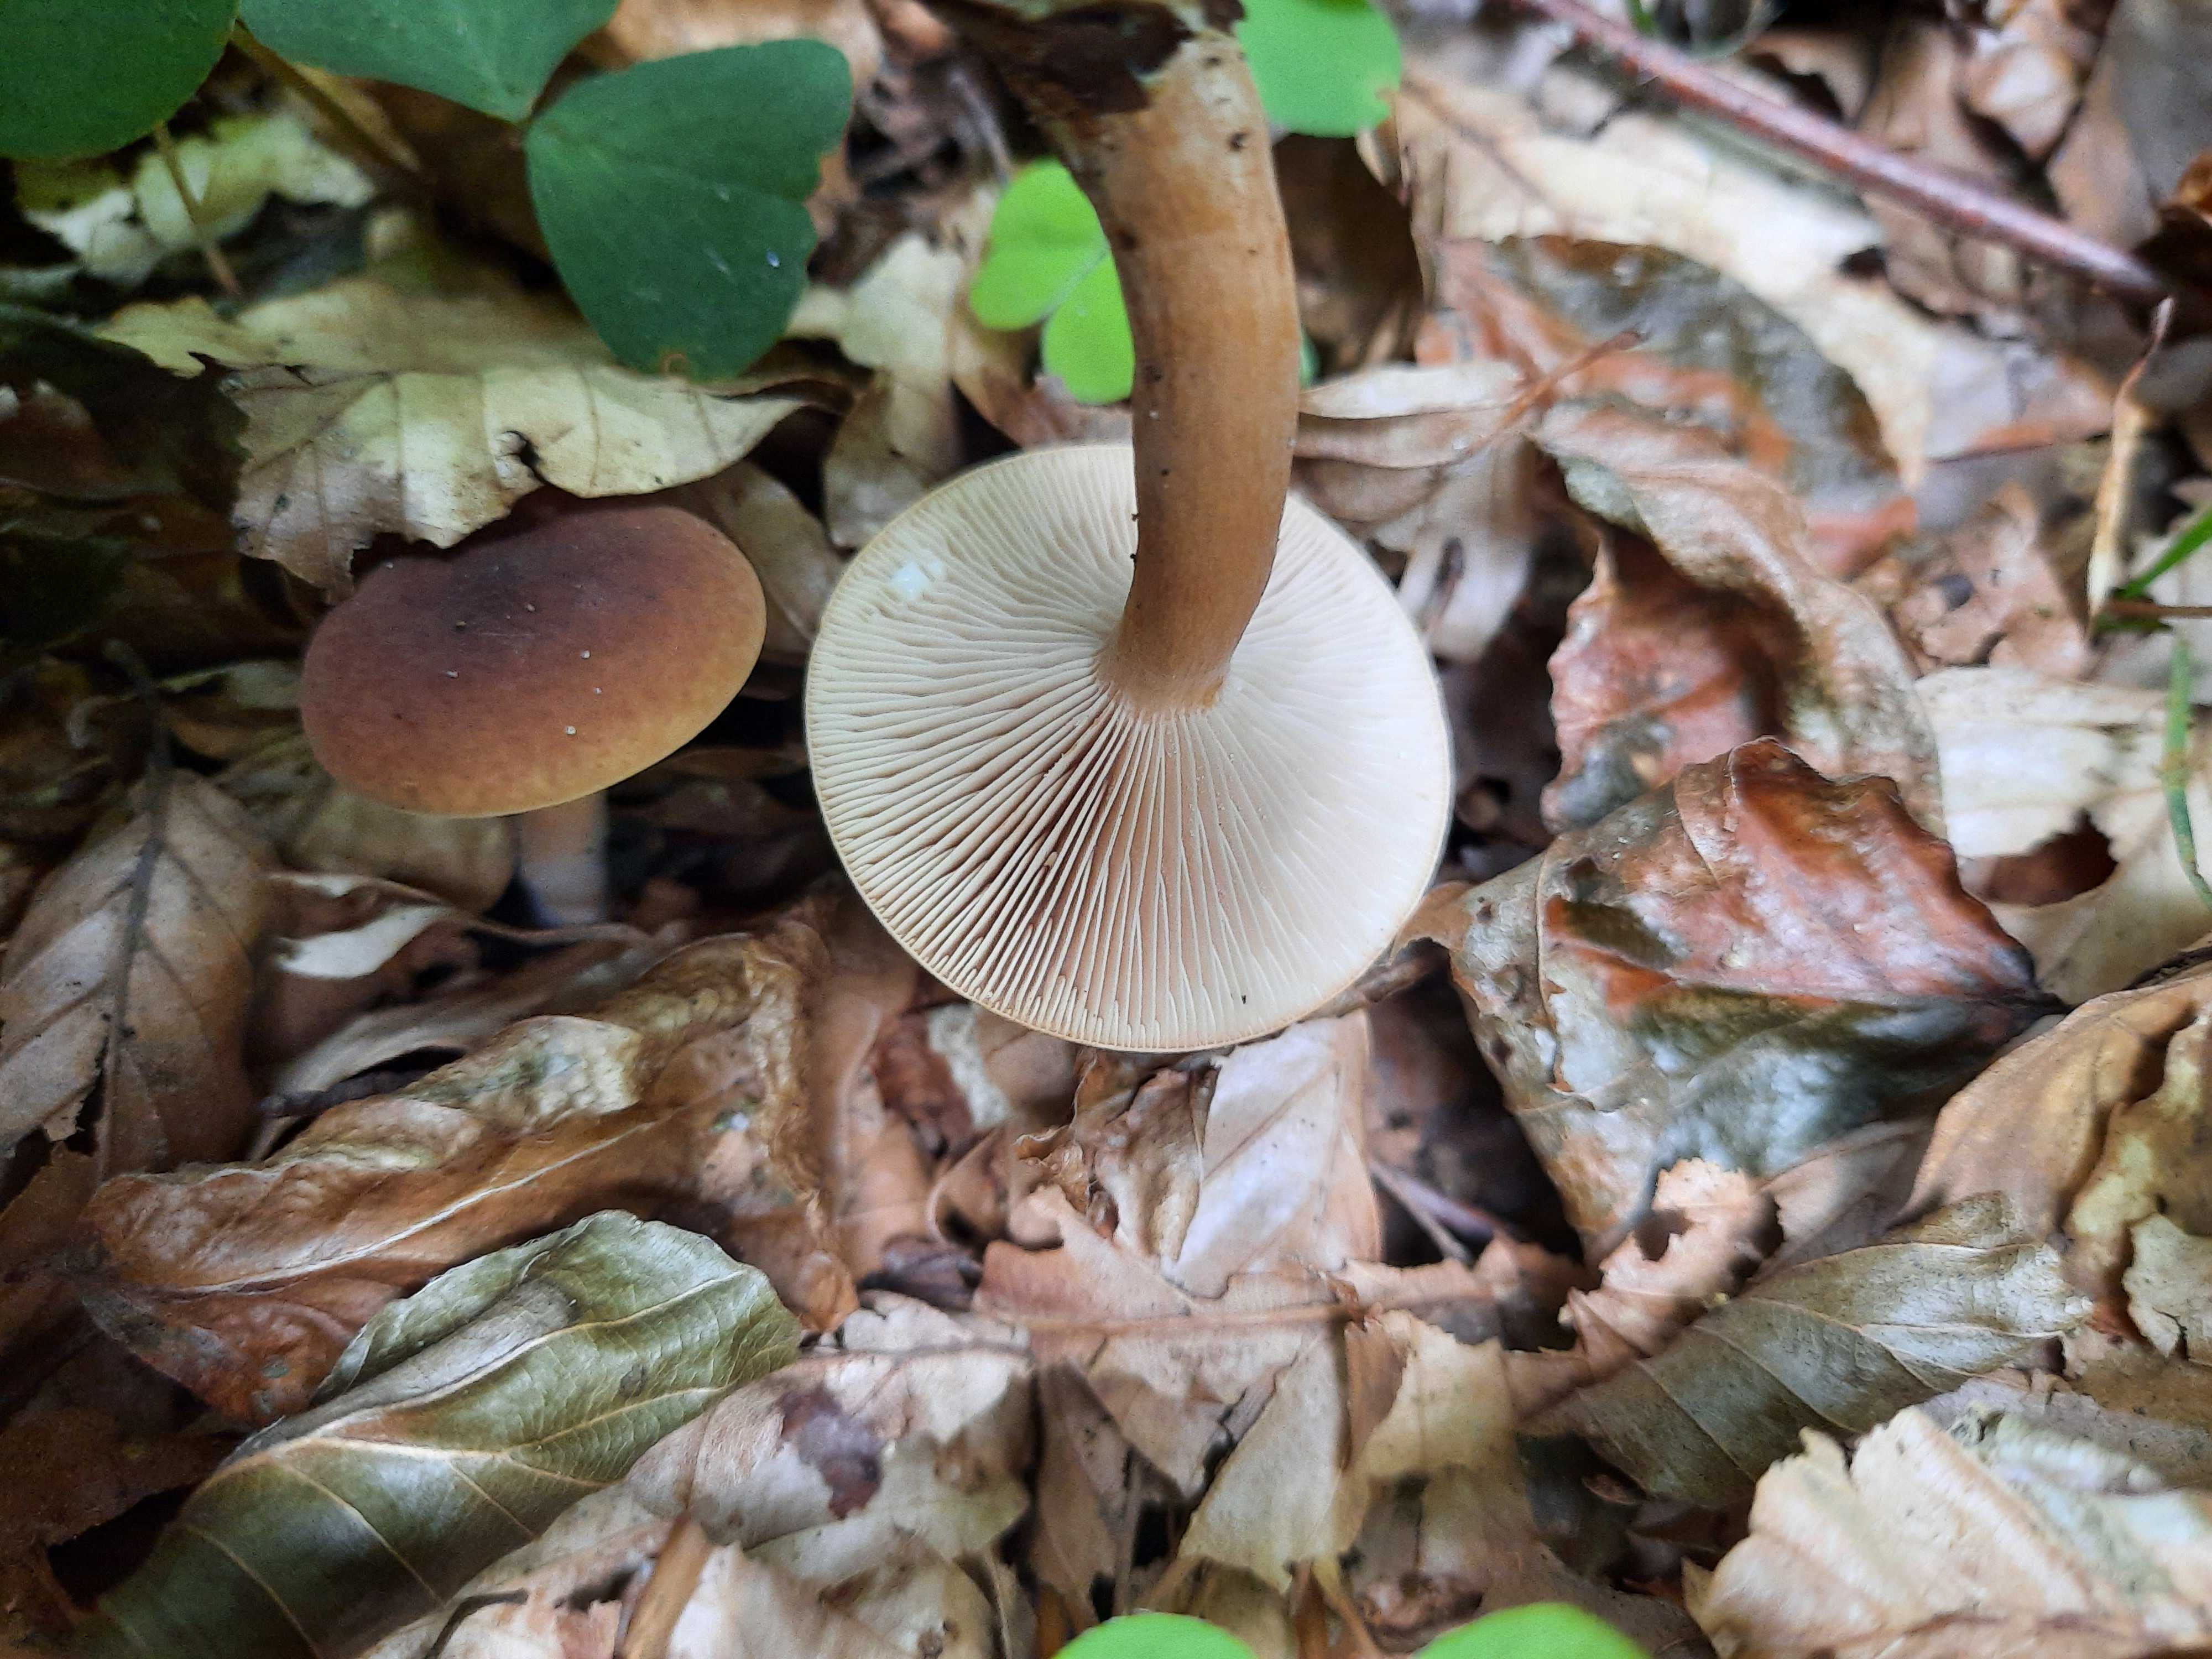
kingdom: Fungi
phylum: Basidiomycota
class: Agaricomycetes
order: Russulales
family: Russulaceae
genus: Lactarius
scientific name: Lactarius subdulcis
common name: sødlig mælkehat
